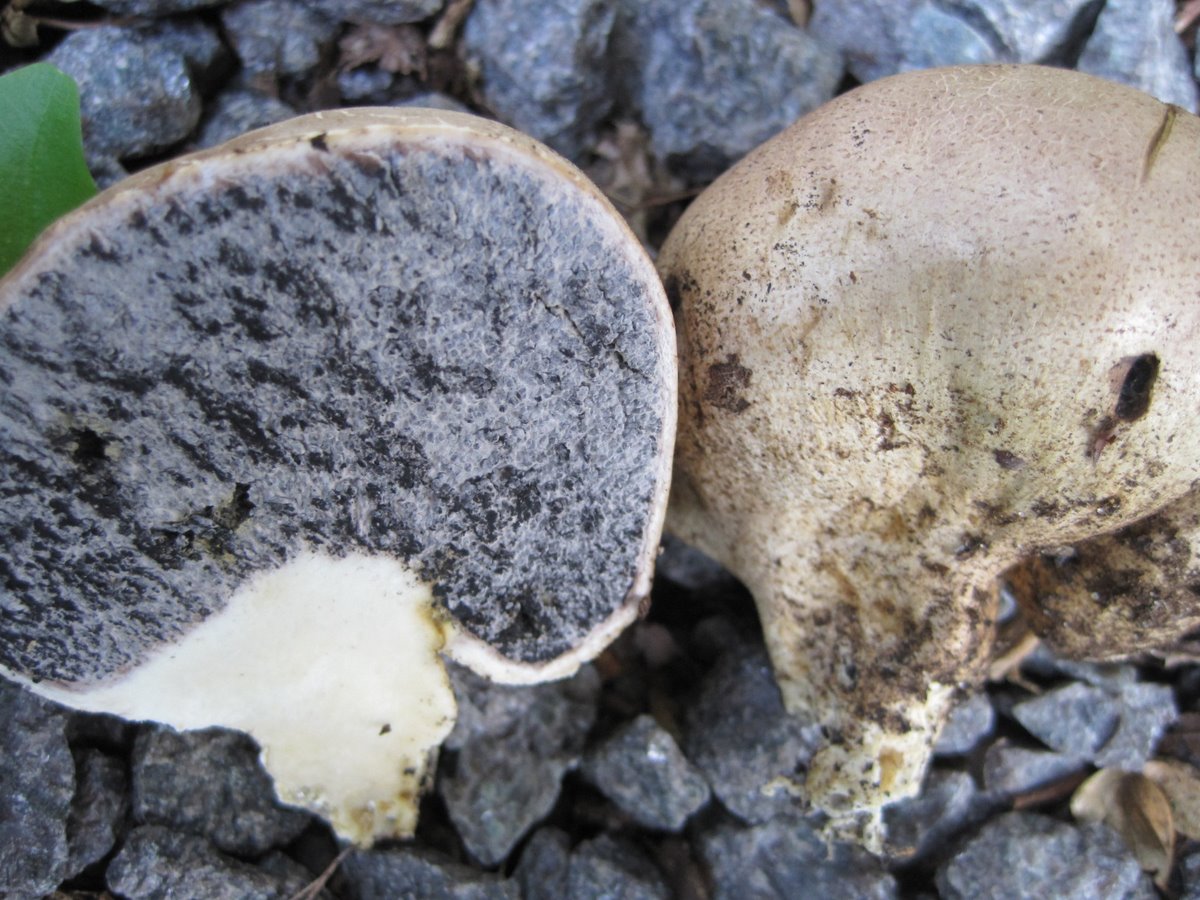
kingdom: Fungi
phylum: Basidiomycota
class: Agaricomycetes
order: Boletales
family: Sclerodermataceae
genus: Scleroderma
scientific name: Scleroderma verrucosum
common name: stilket bruskbold
